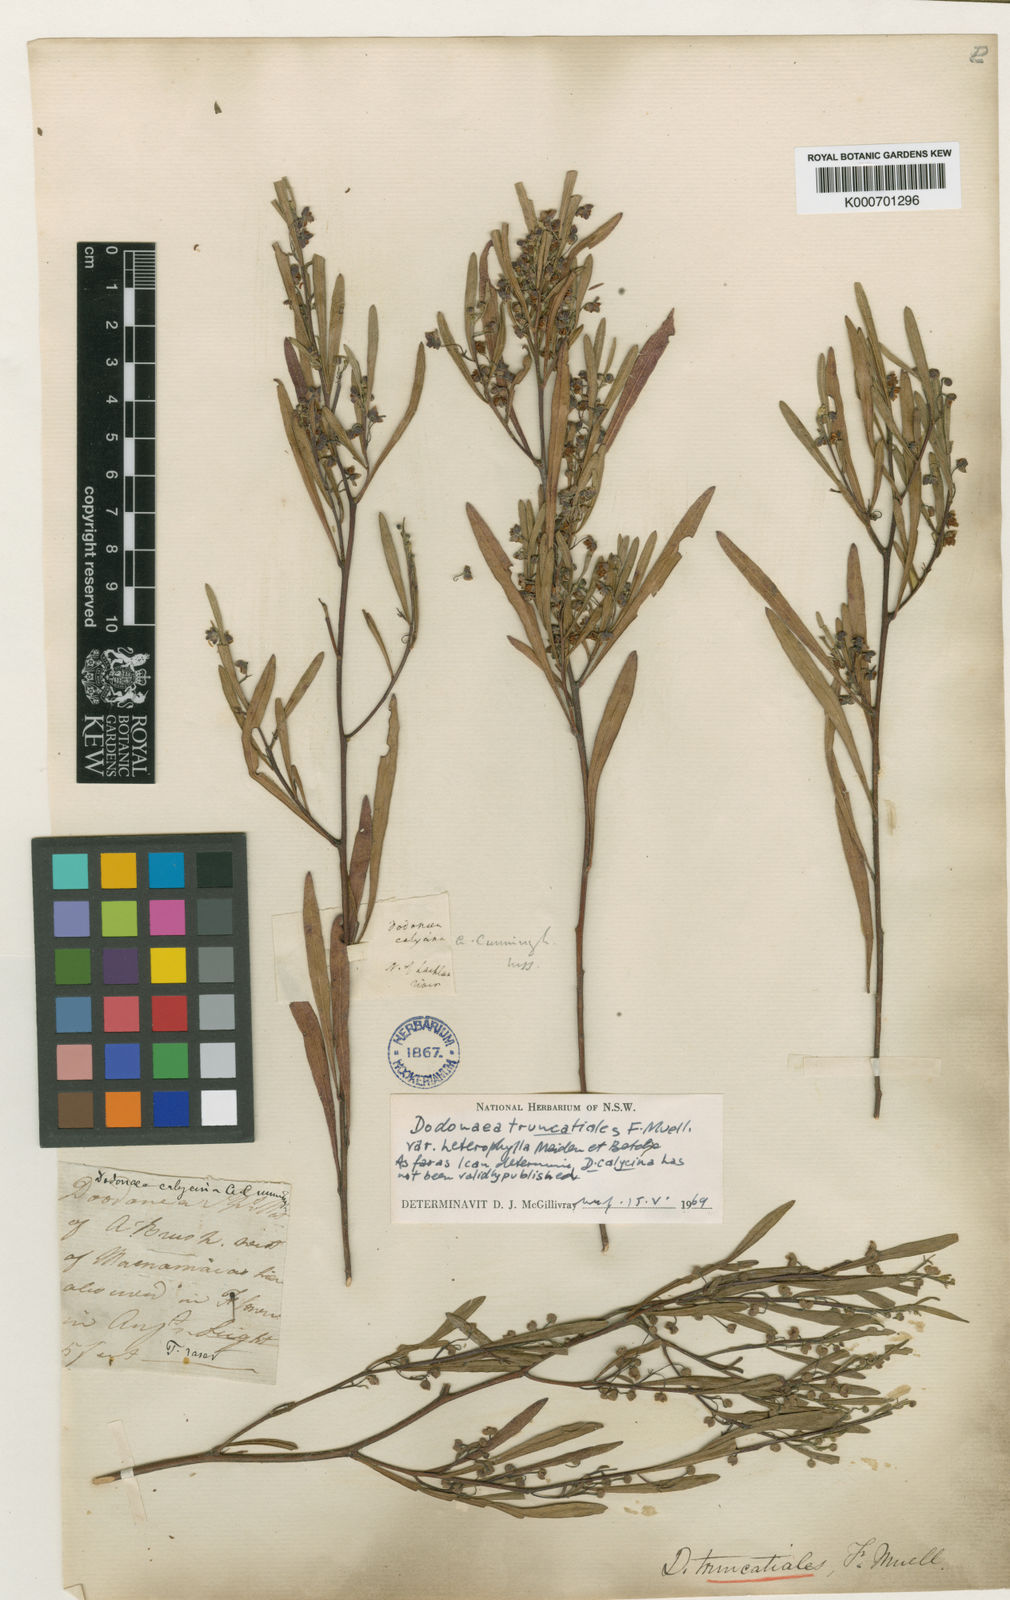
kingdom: Plantae
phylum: Tracheophyta
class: Magnoliopsida
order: Sapindales
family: Sapindaceae
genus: Dodonaea
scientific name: Dodonaea truncatialis
